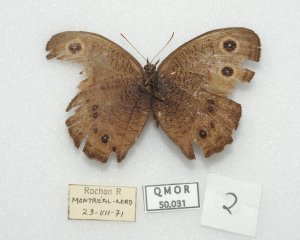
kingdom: Animalia
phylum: Arthropoda
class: Insecta
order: Lepidoptera
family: Nymphalidae
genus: Cercyonis
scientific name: Cercyonis pegala
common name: Common Wood-Nymph
